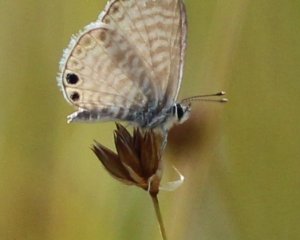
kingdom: Animalia
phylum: Arthropoda
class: Insecta
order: Lepidoptera
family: Lycaenidae
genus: Leptotes
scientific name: Leptotes marina
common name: Marine Blue
